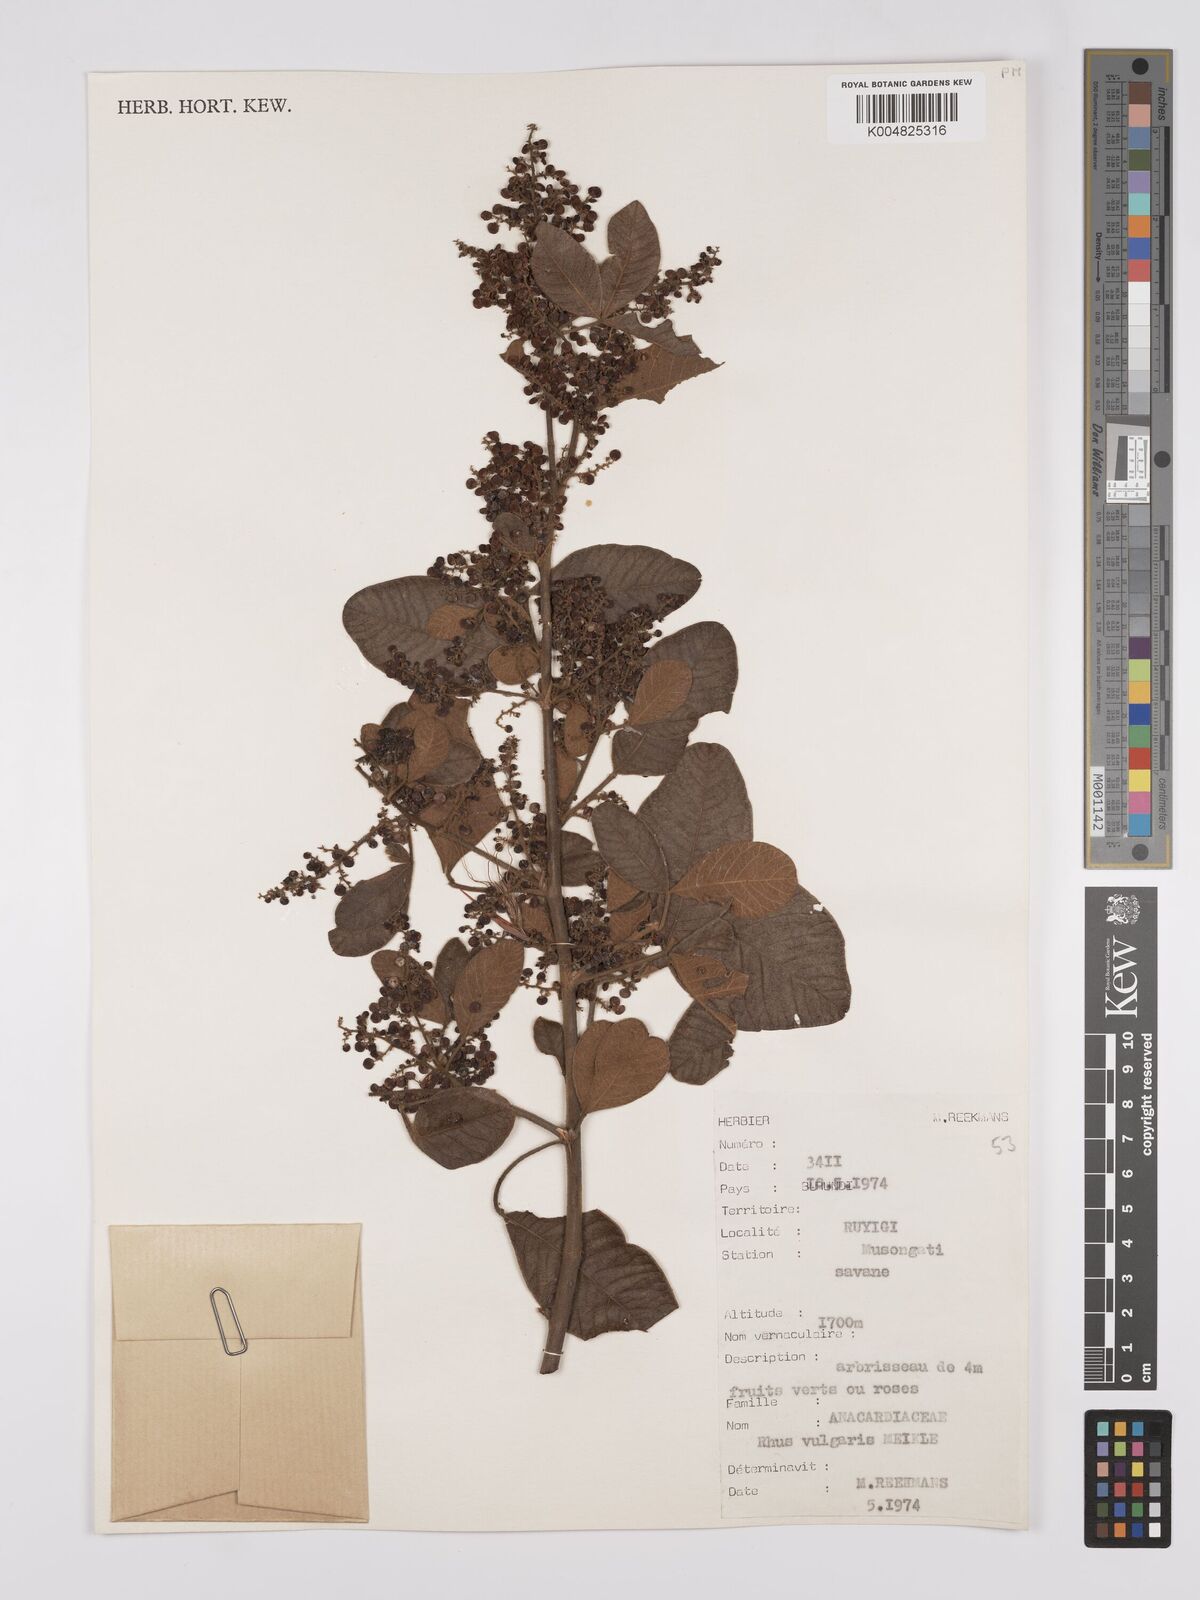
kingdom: Plantae
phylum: Tracheophyta
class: Magnoliopsida
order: Sapindales
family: Anacardiaceae
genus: Searsia
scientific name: Searsia pyroides
